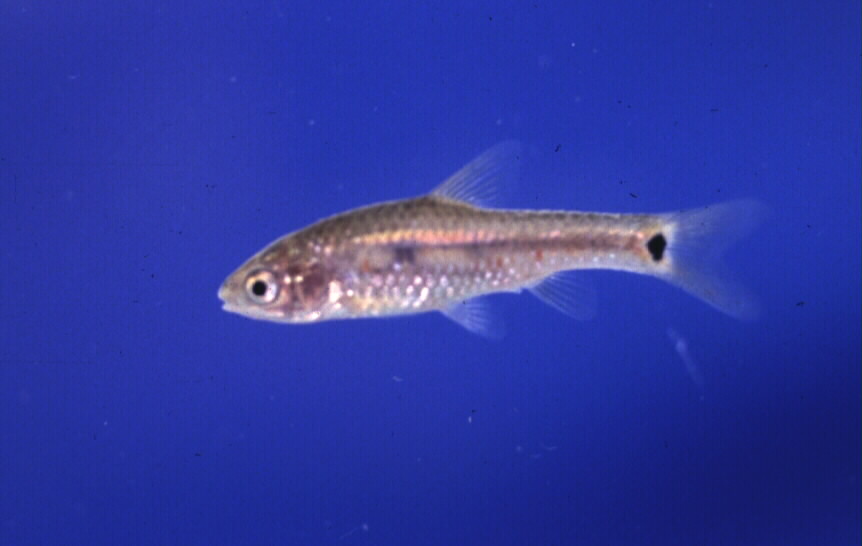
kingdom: Animalia
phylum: Chordata
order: Cypriniformes
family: Cyprinidae
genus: Enteromius
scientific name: Enteromius brevidorsalis
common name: Dwarf barb
